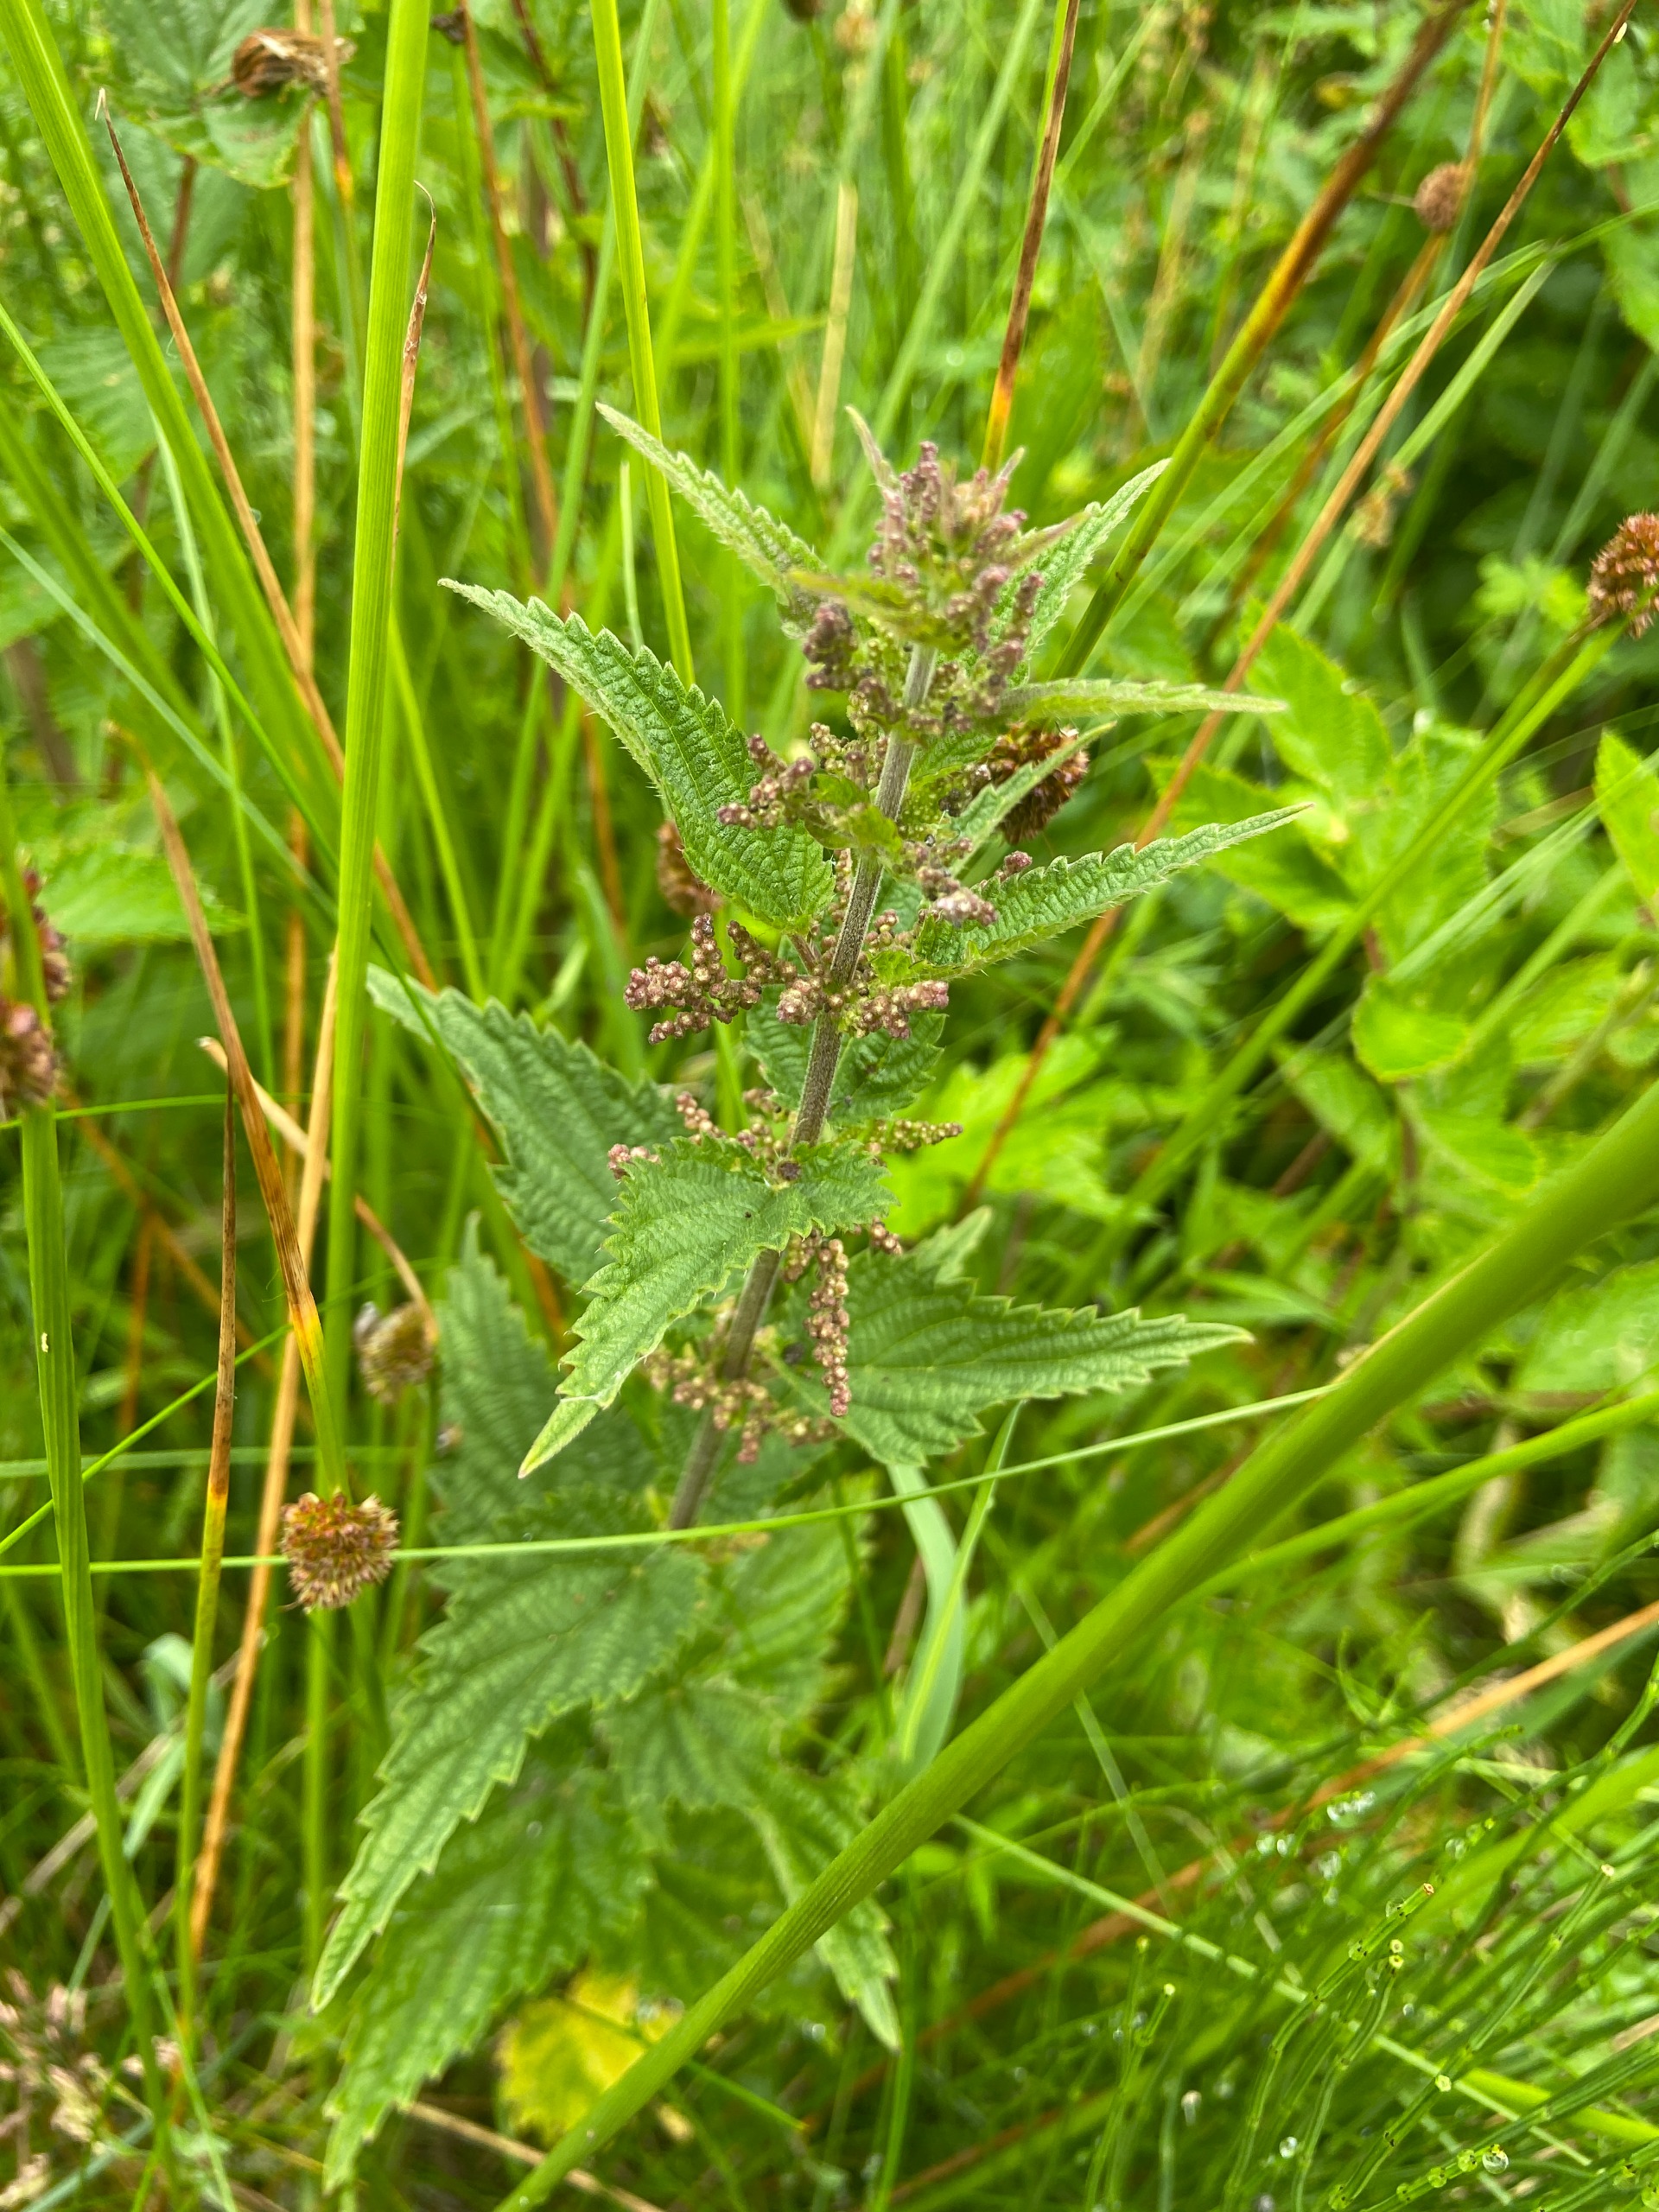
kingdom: Plantae
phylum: Tracheophyta
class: Magnoliopsida
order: Rosales
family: Urticaceae
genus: Urtica
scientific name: Urtica dioica
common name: Stor nælde
